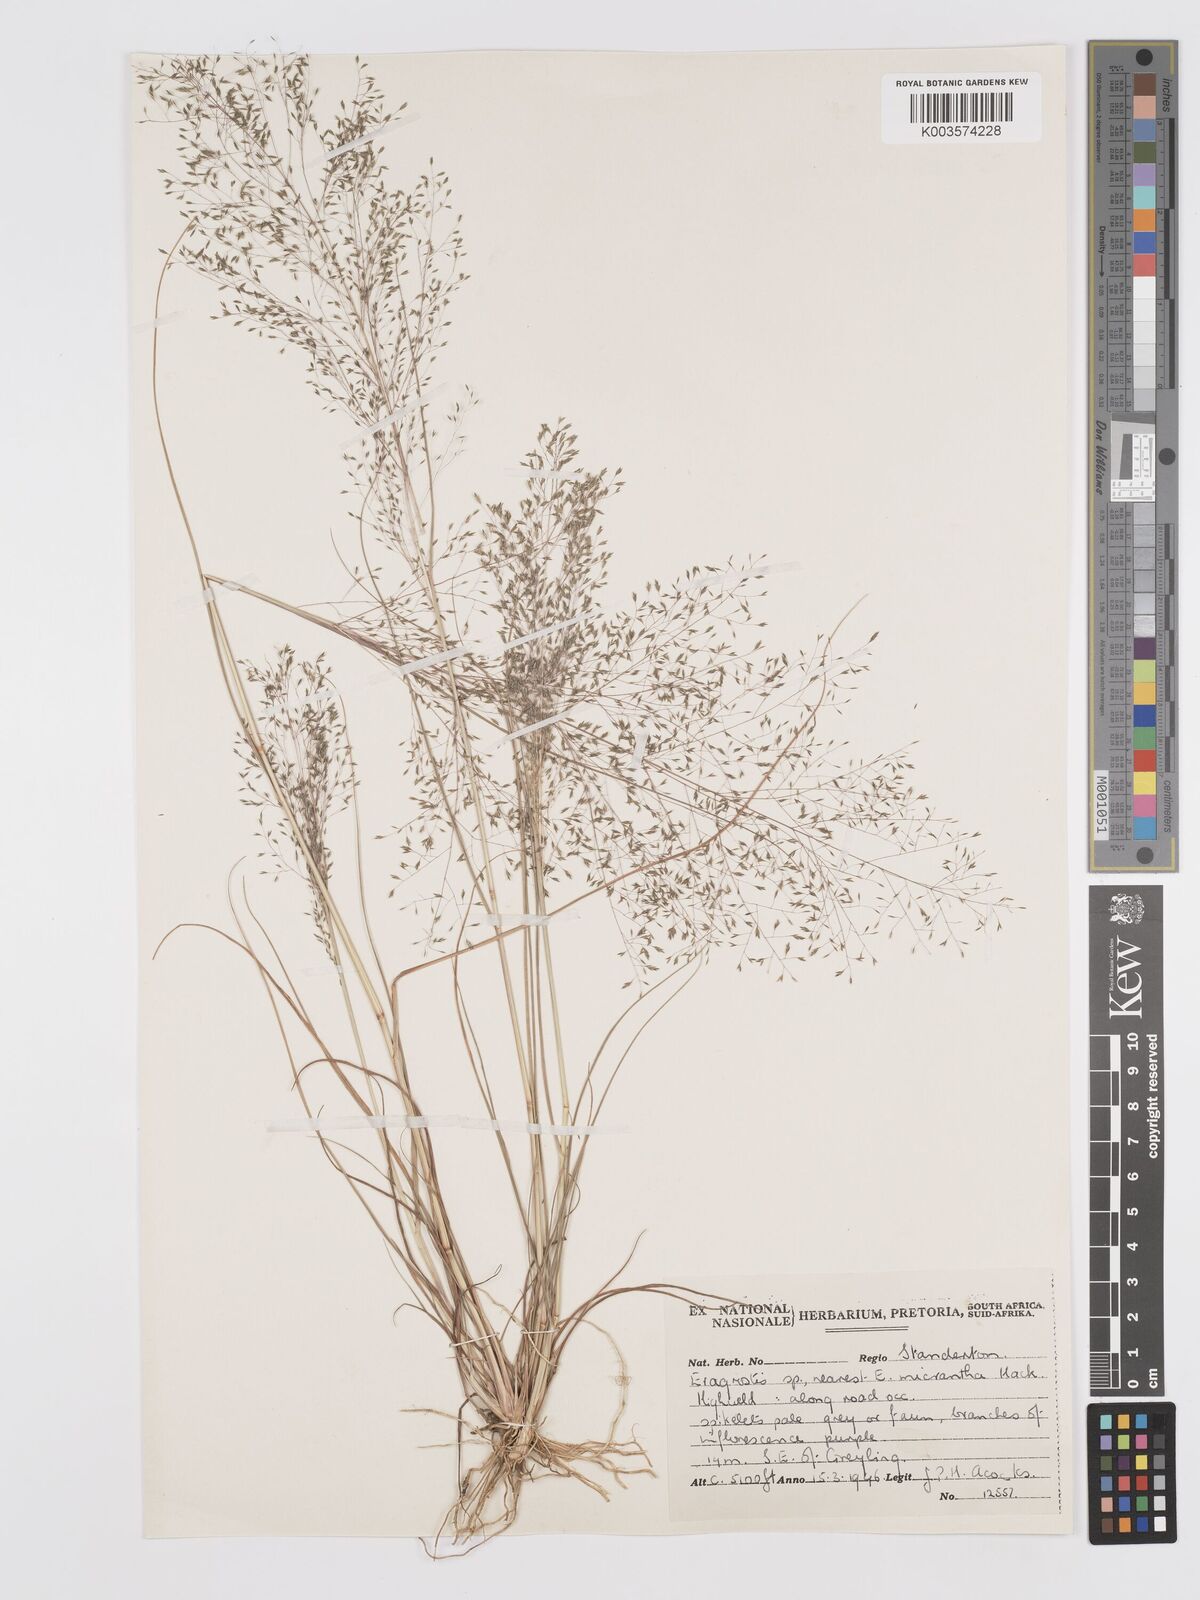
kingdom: Plantae
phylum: Tracheophyta
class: Liliopsida
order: Poales
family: Poaceae
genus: Eragrostis
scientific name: Eragrostis micrantha
